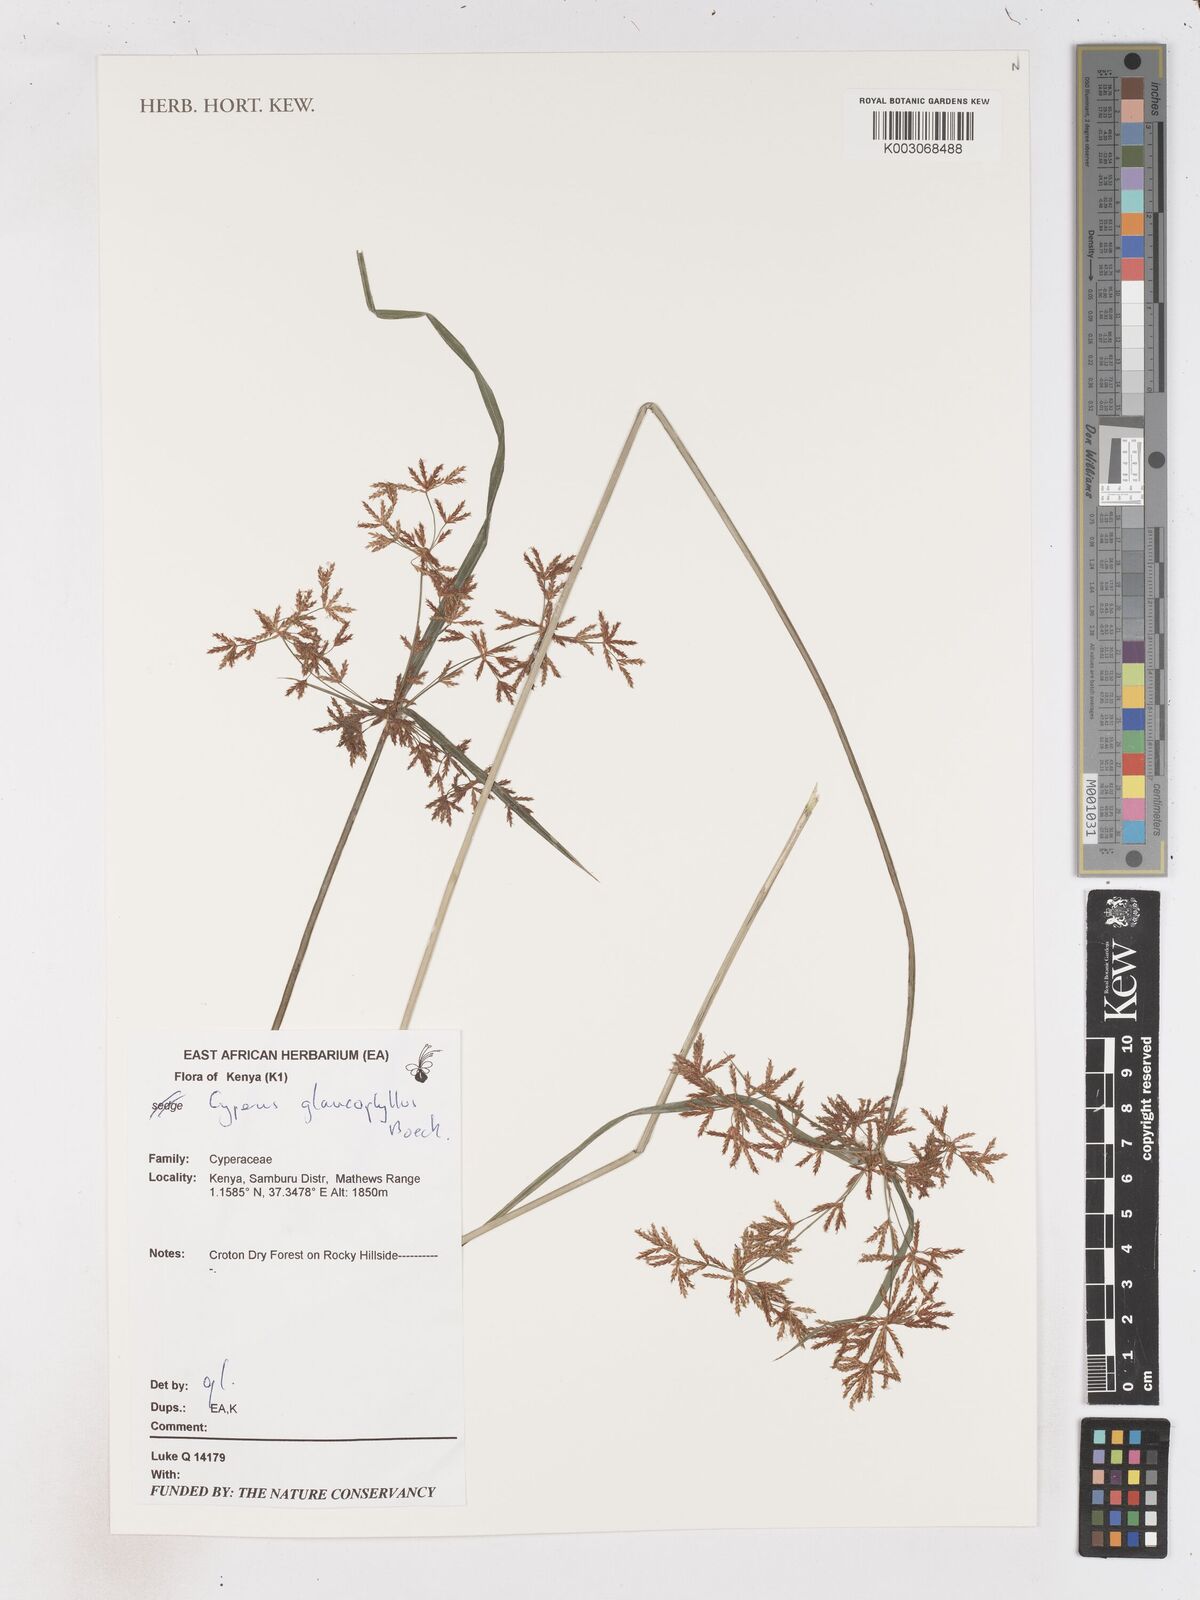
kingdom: Plantae
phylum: Tracheophyta
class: Liliopsida
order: Poales
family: Cyperaceae
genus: Cyperus
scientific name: Cyperus glaucophyllus
